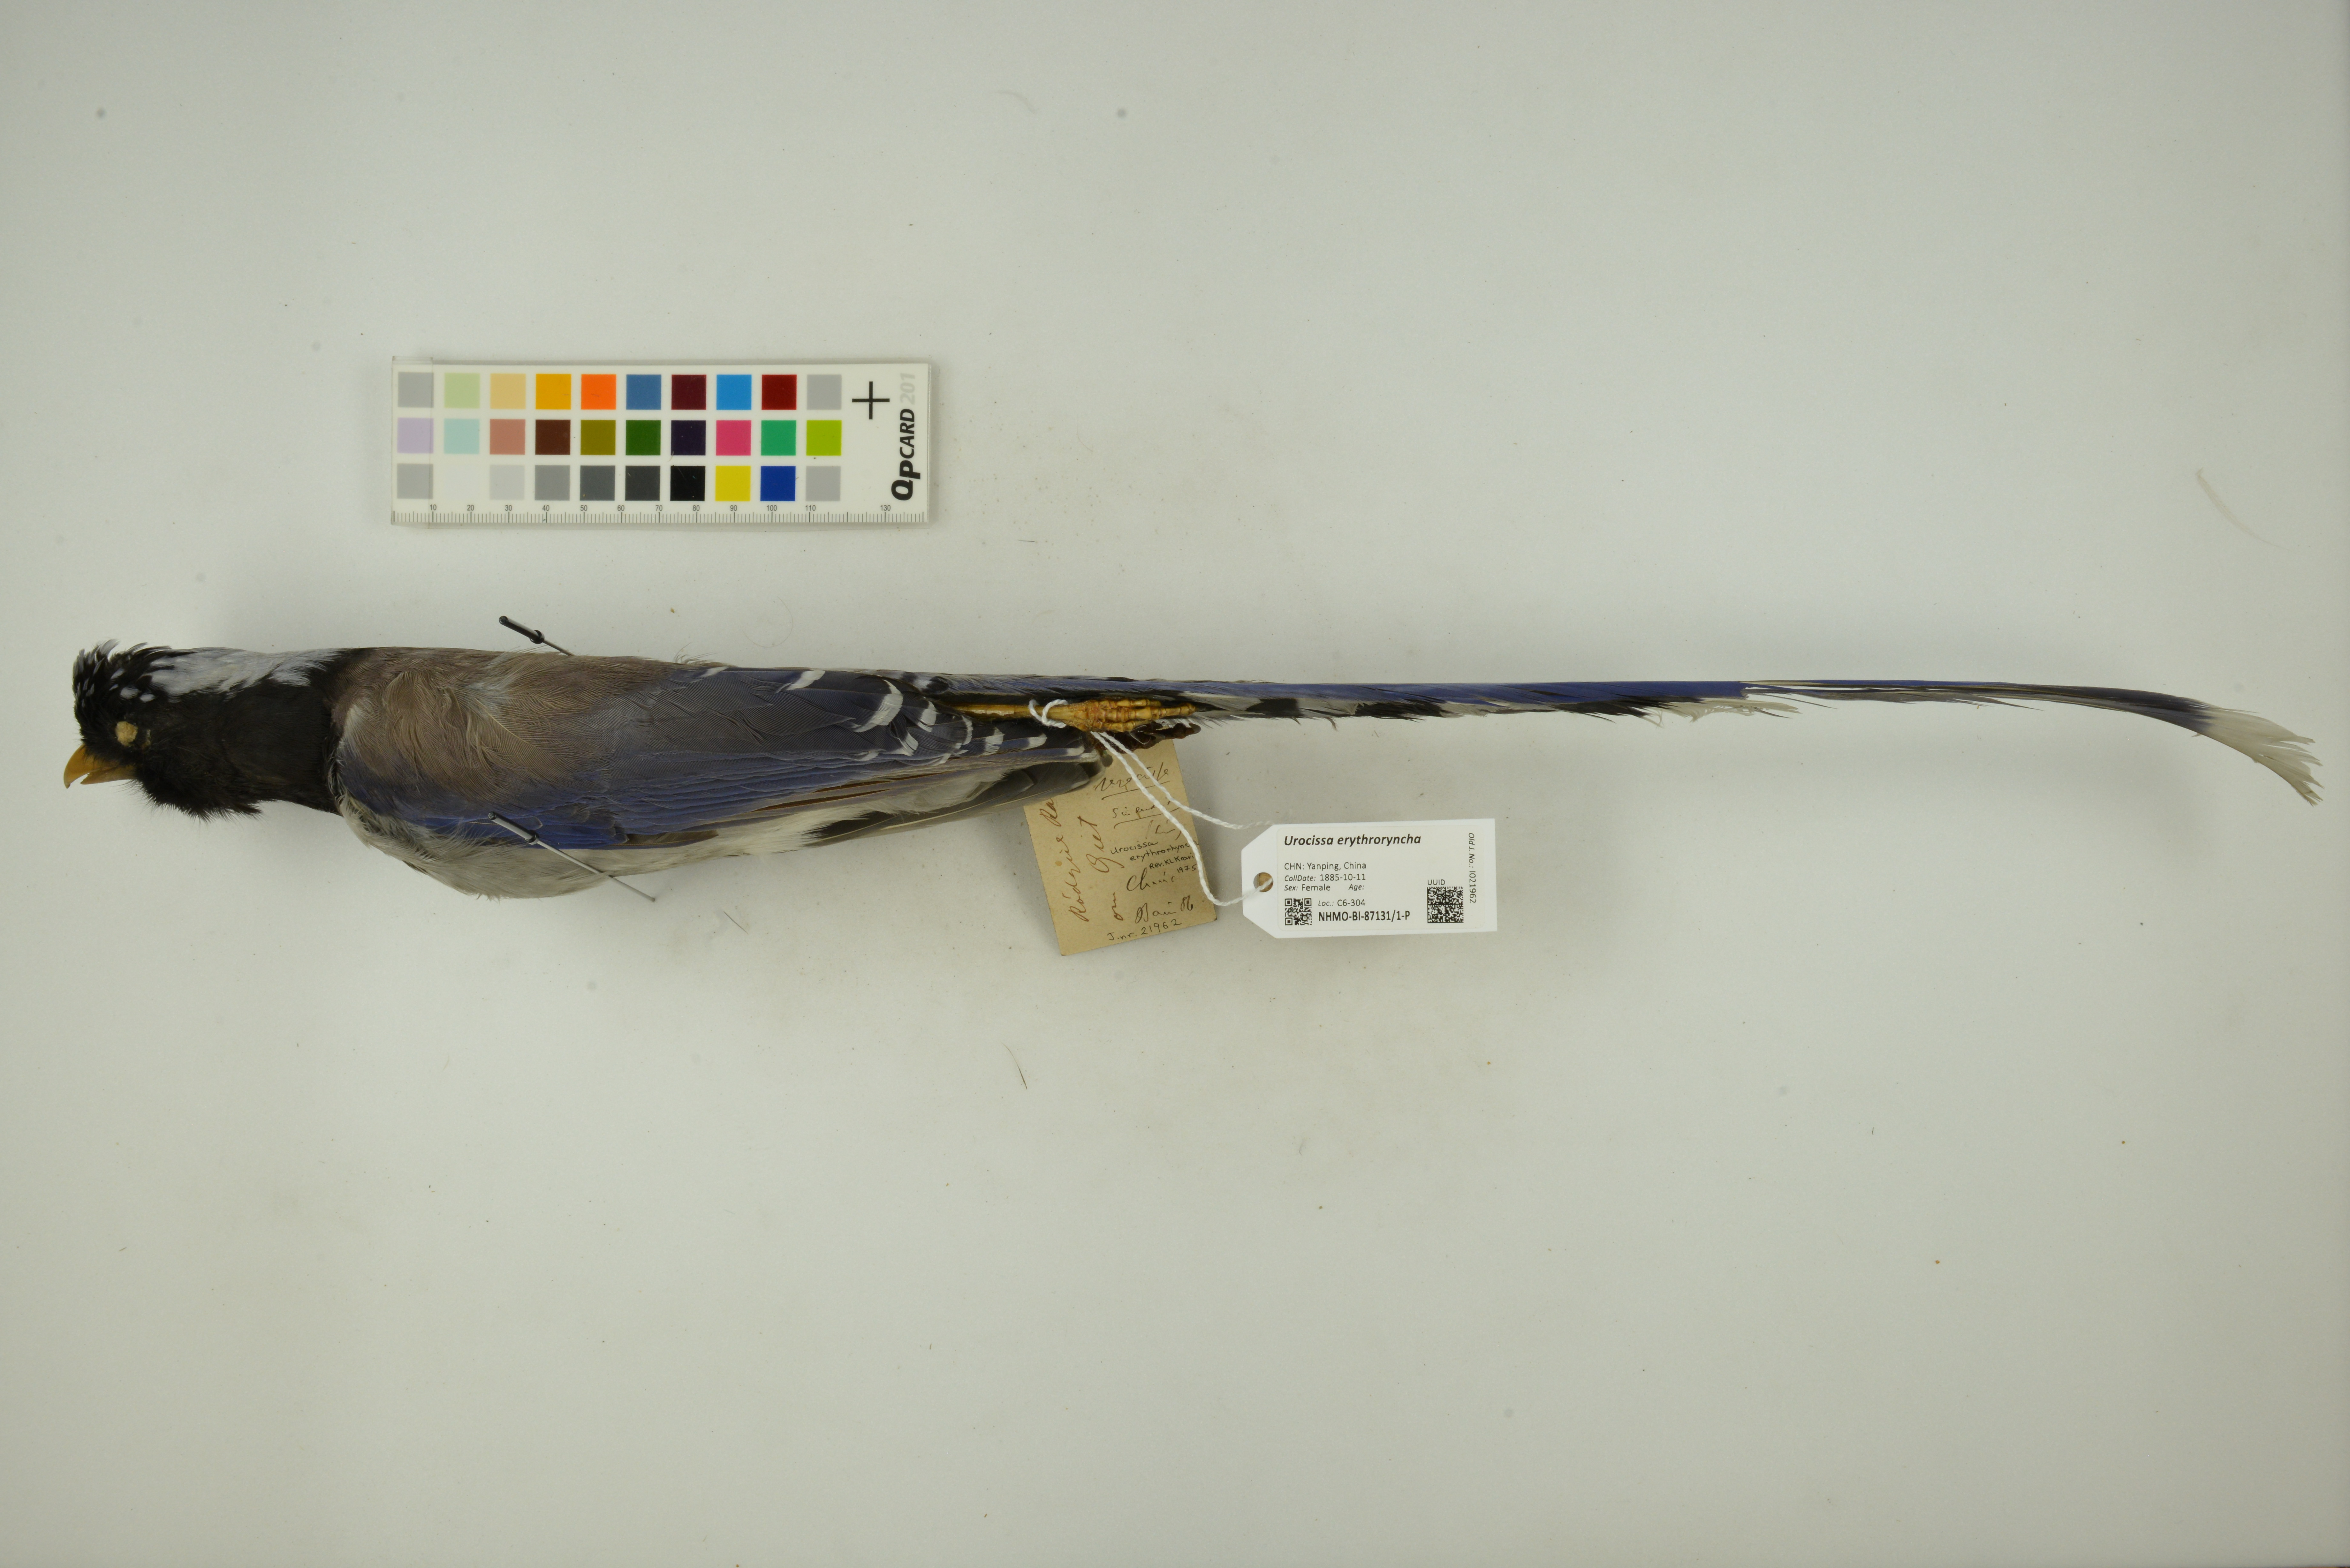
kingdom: Animalia
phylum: Chordata
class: Aves
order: Passeriformes
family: Corvidae
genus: Urocissa
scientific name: Urocissa erythroryncha
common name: Red-billed blue magpie
